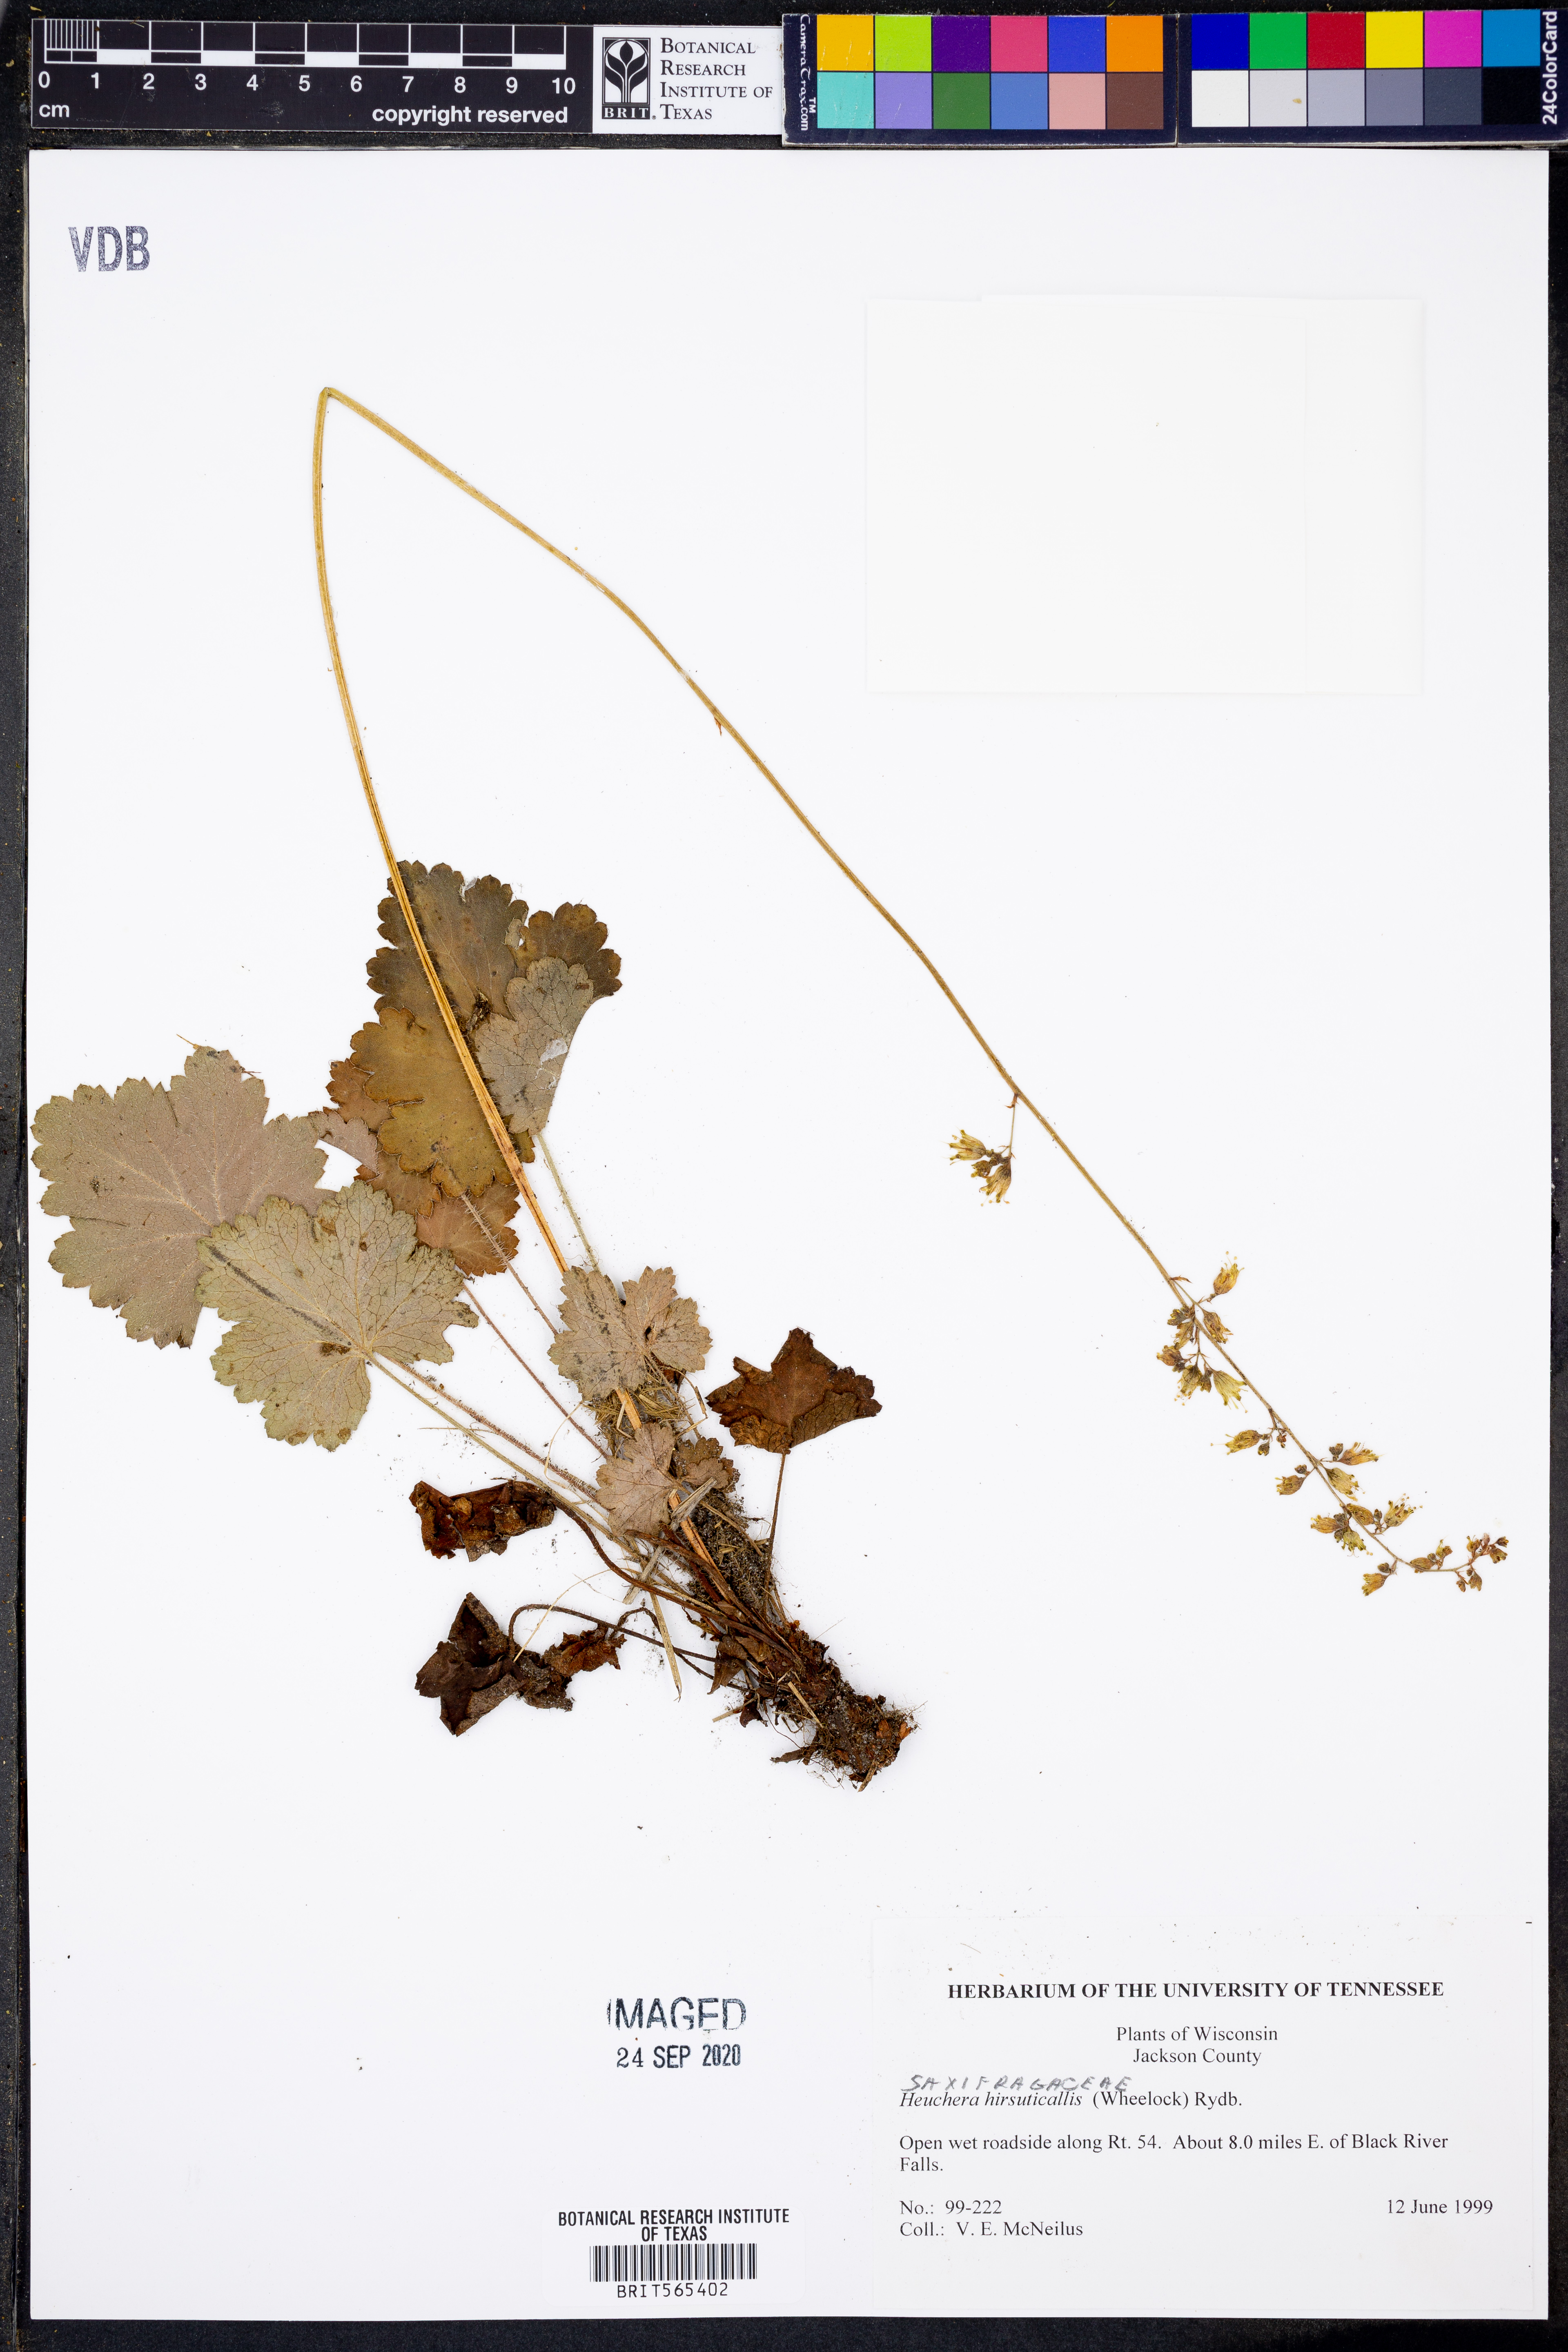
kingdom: Plantae
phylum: Tracheophyta
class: Magnoliopsida
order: Saxifragales
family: Saxifragaceae
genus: Heuchera
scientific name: Heuchera americana
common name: Alumroot
